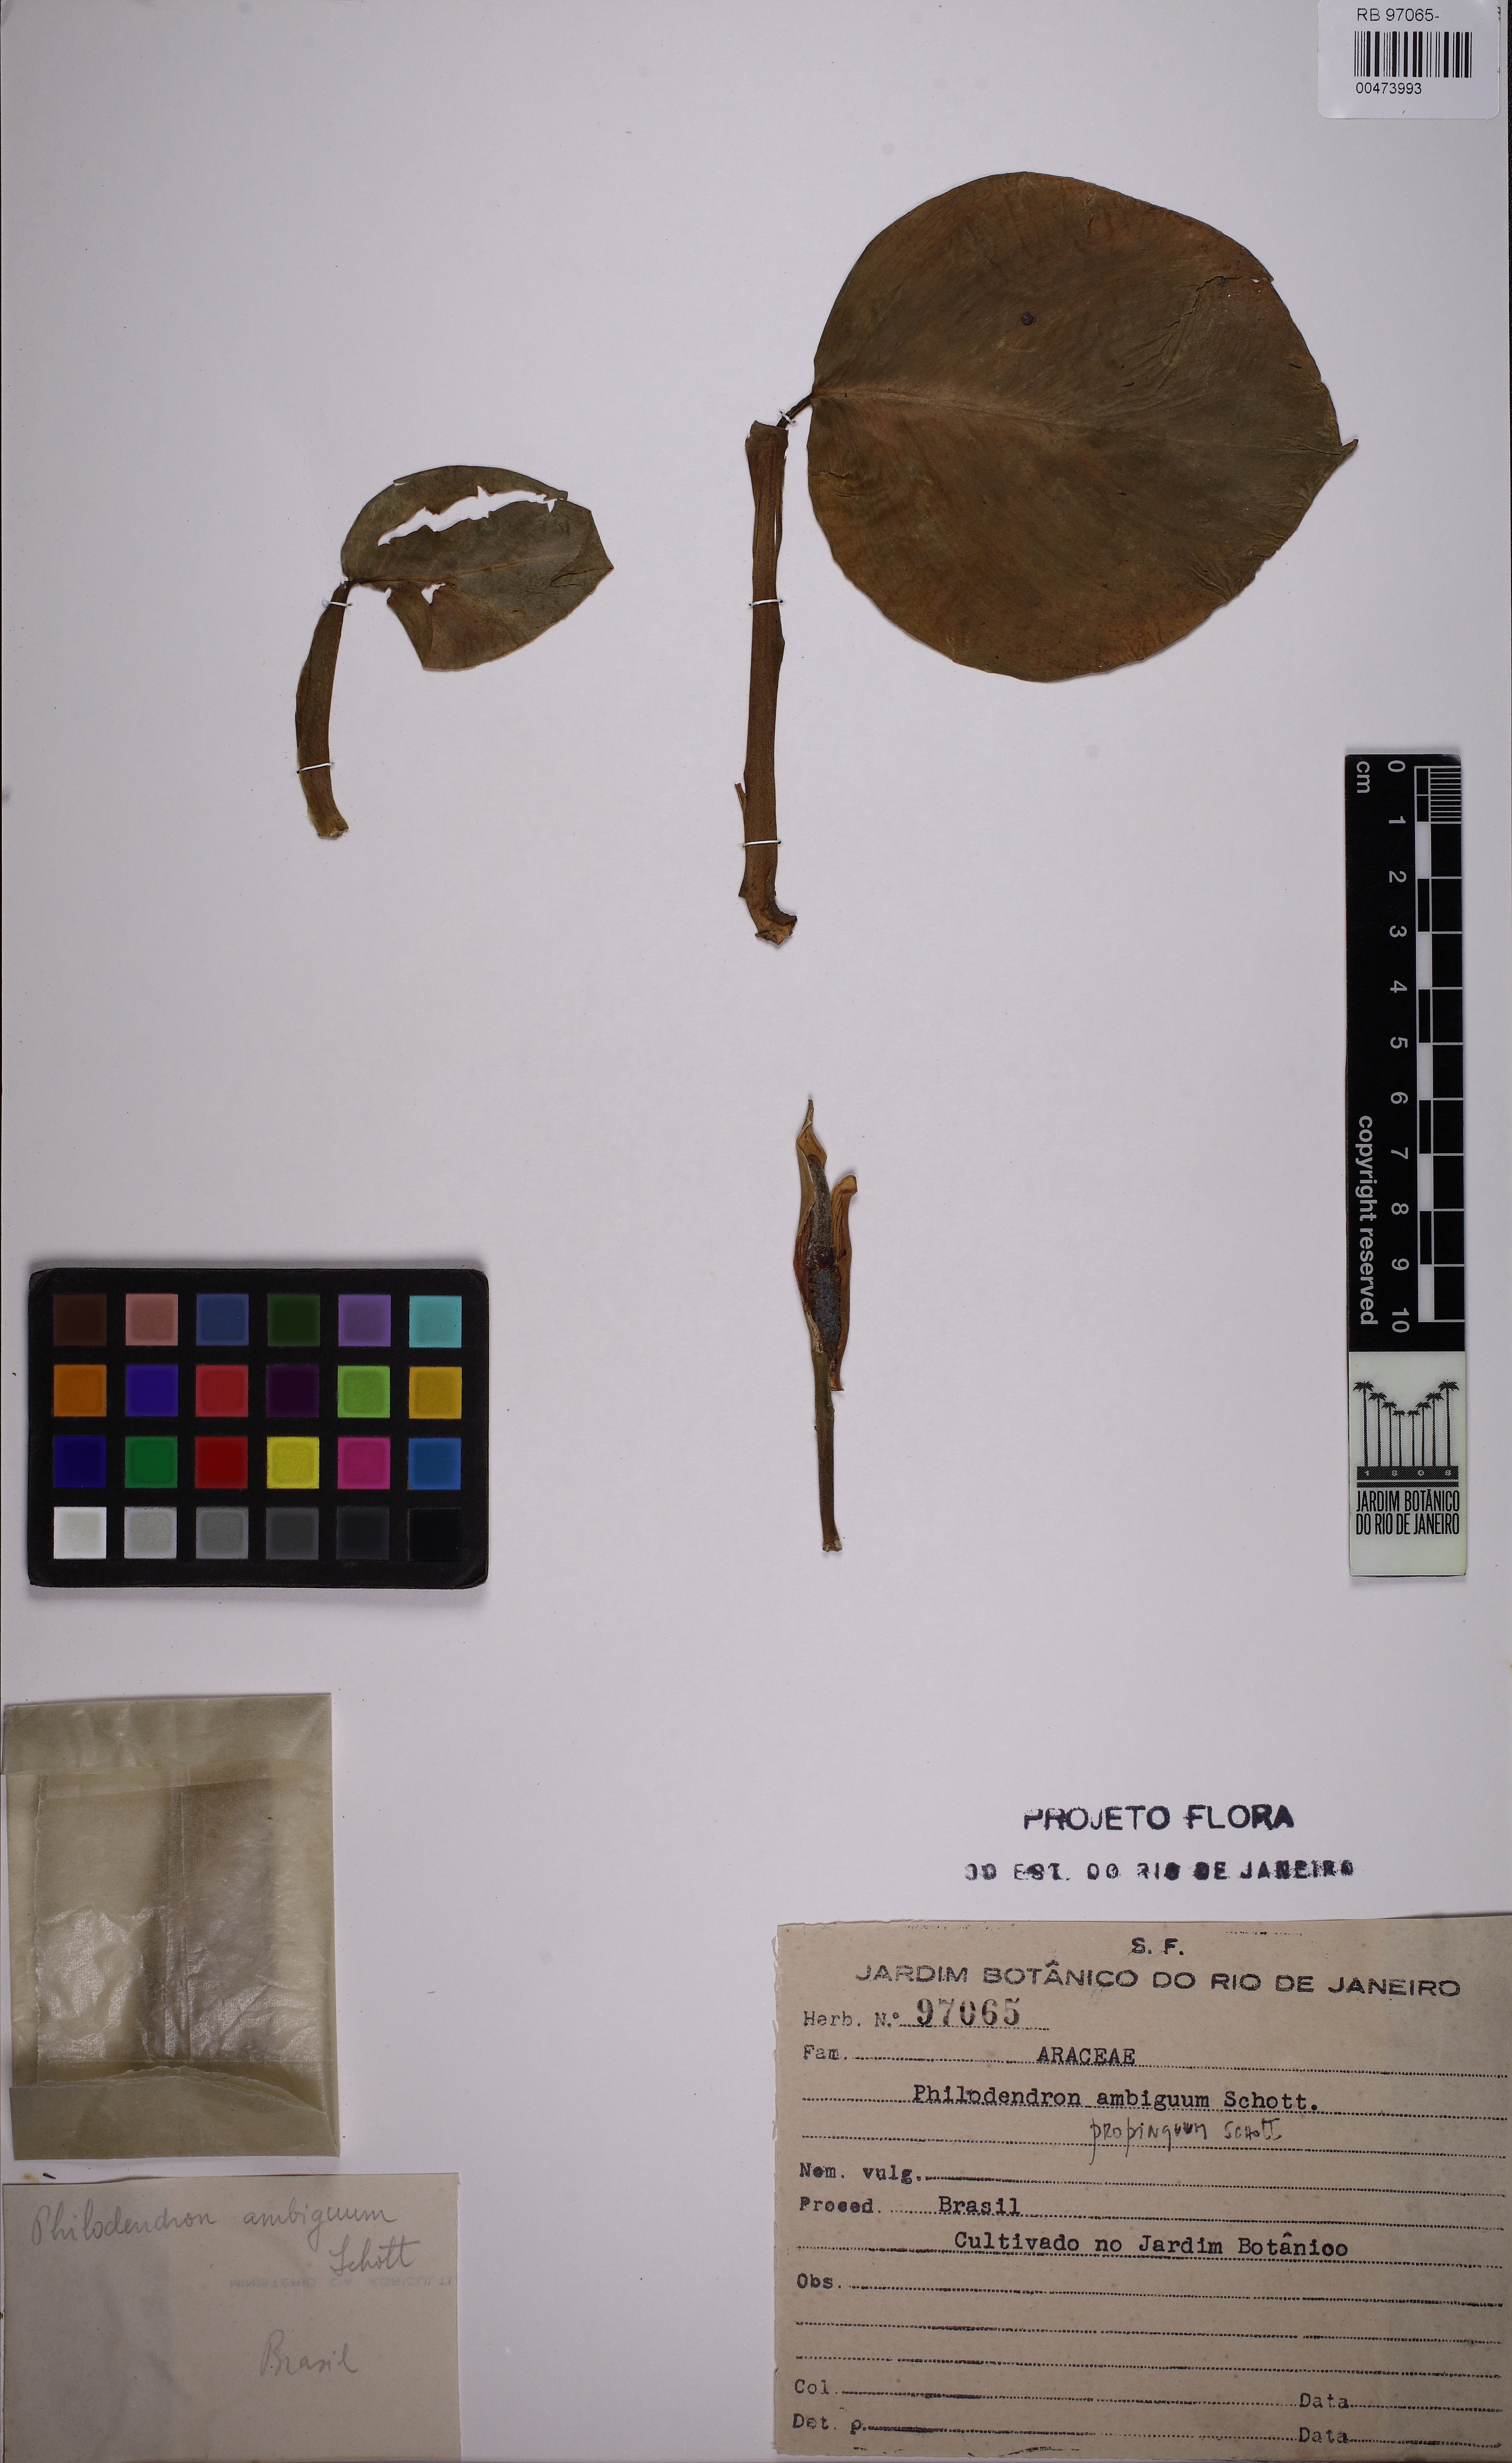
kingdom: Plantae
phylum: Tracheophyta
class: Liliopsida
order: Alismatales
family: Araceae
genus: Philodendron
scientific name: Philodendron propinquum
